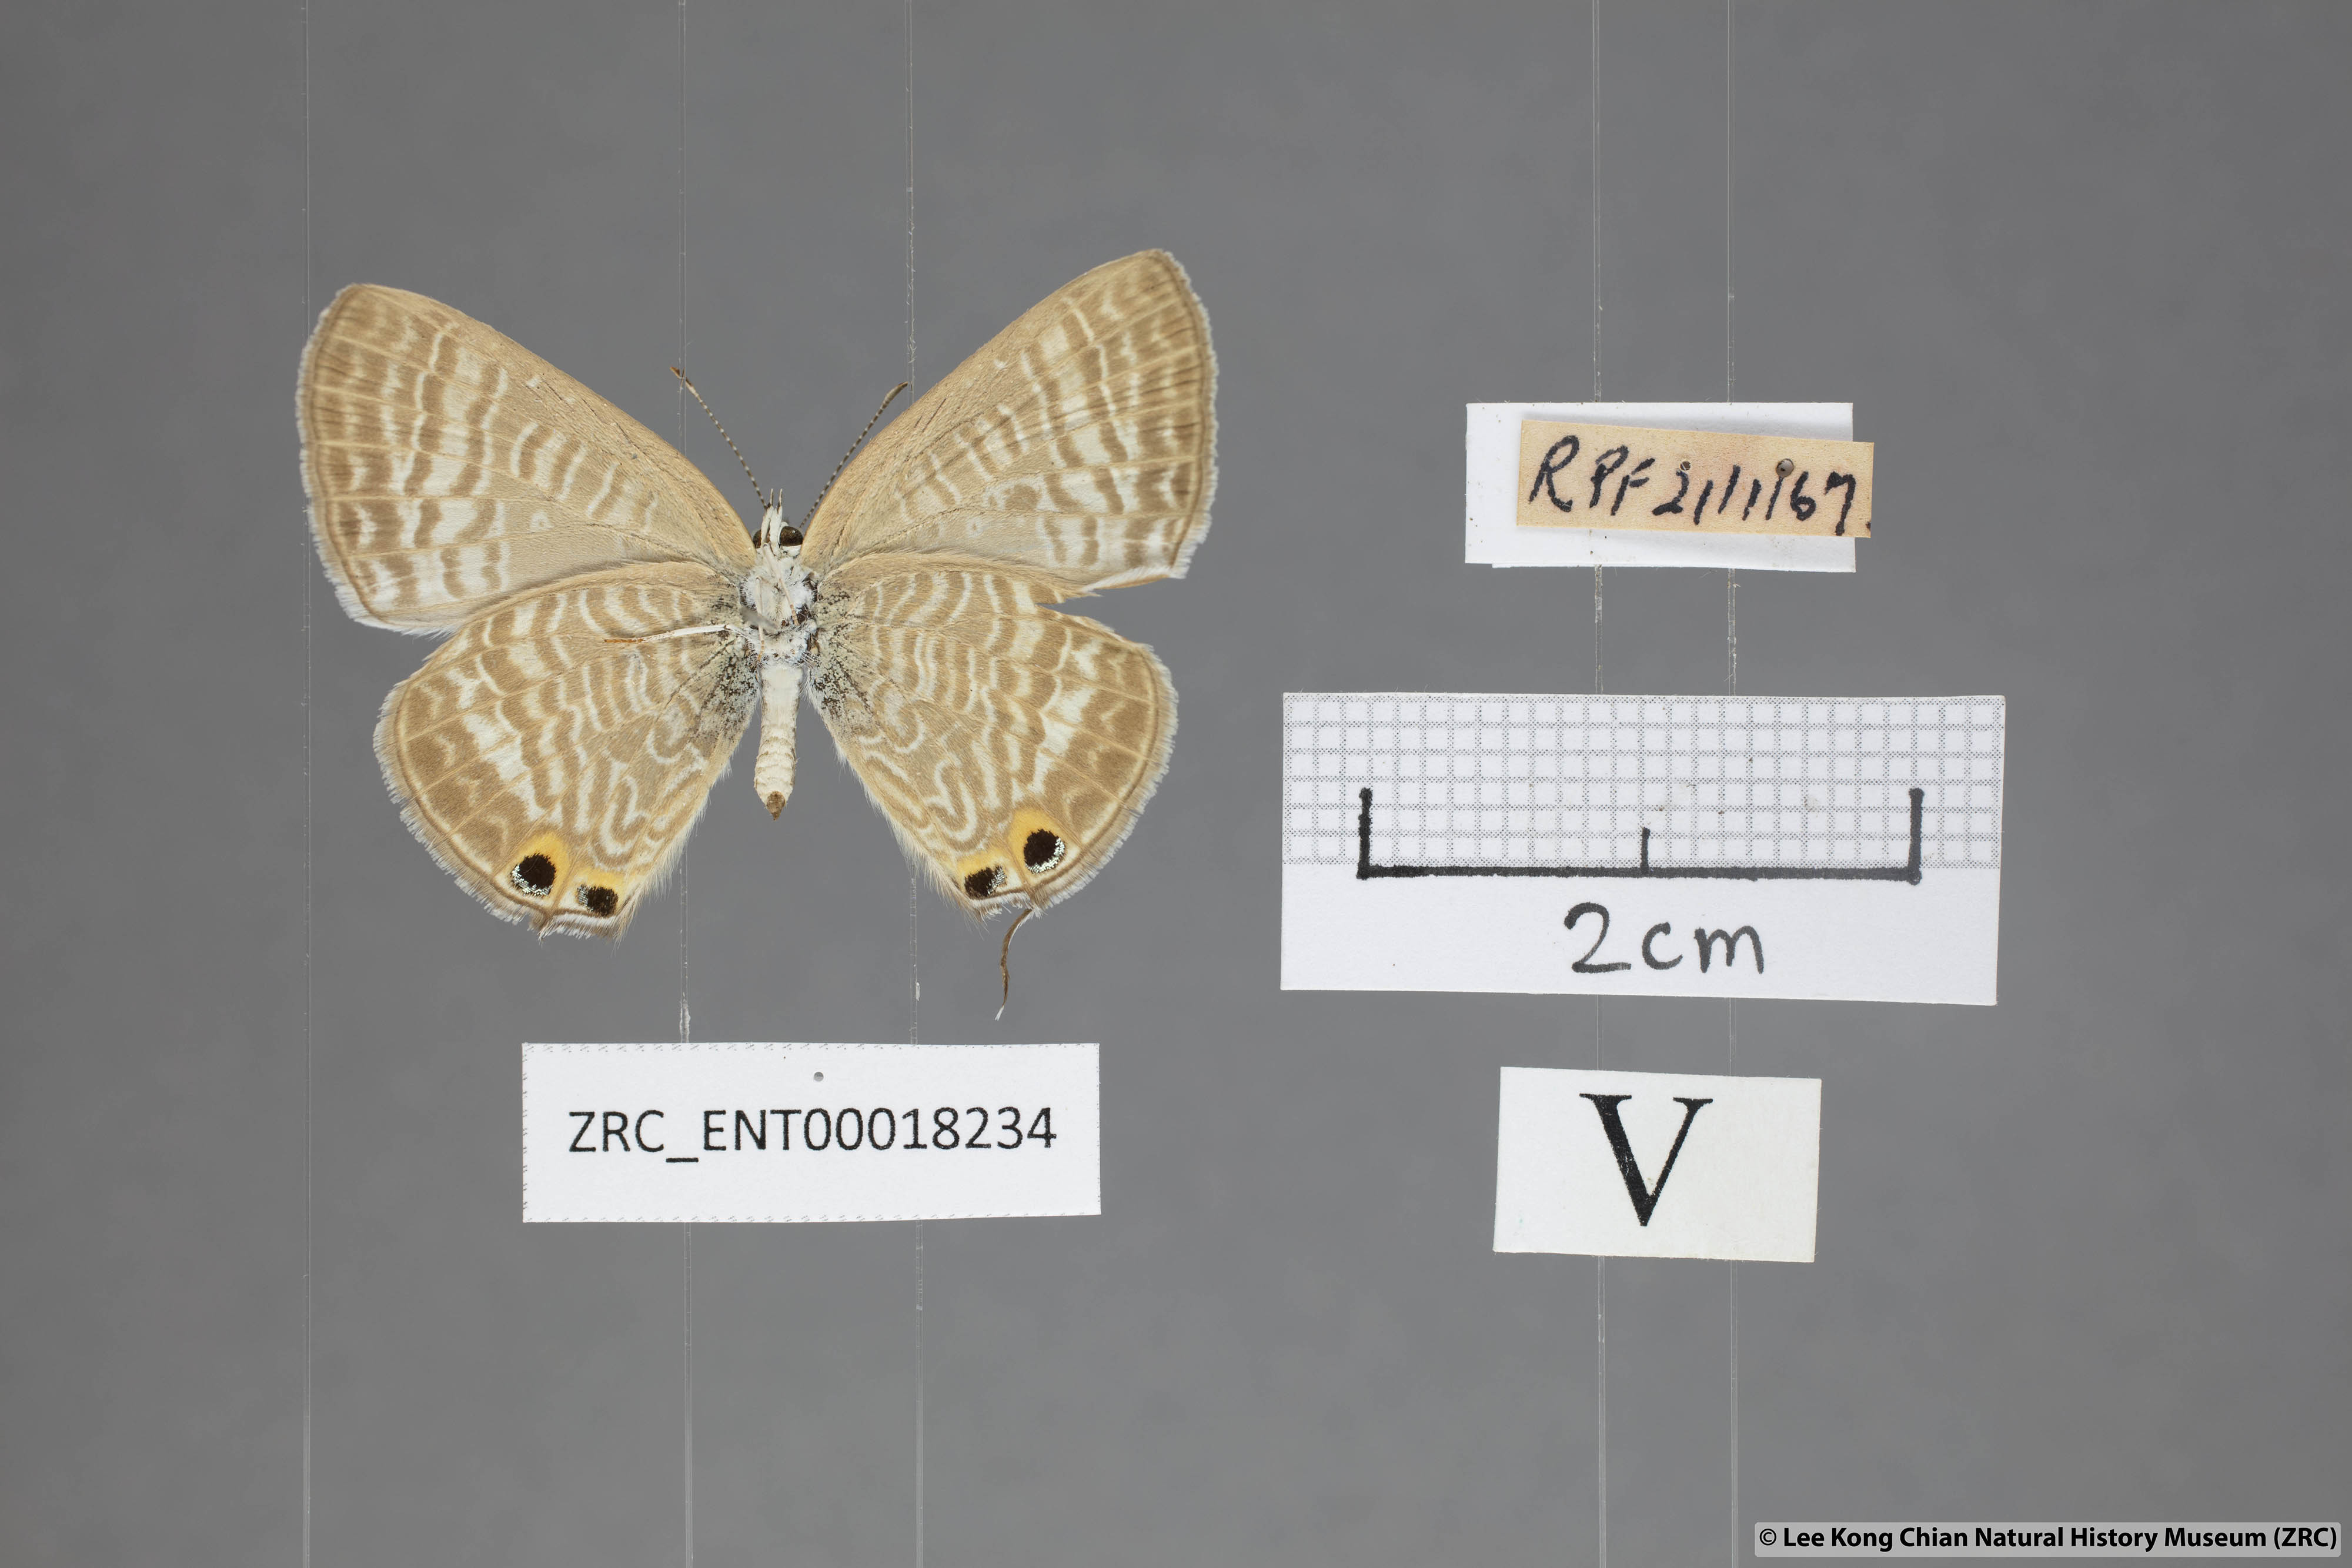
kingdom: Animalia
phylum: Arthropoda
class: Insecta
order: Lepidoptera
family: Lycaenidae
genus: Lampides
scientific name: Lampides boeticus
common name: Long-tailed blue
